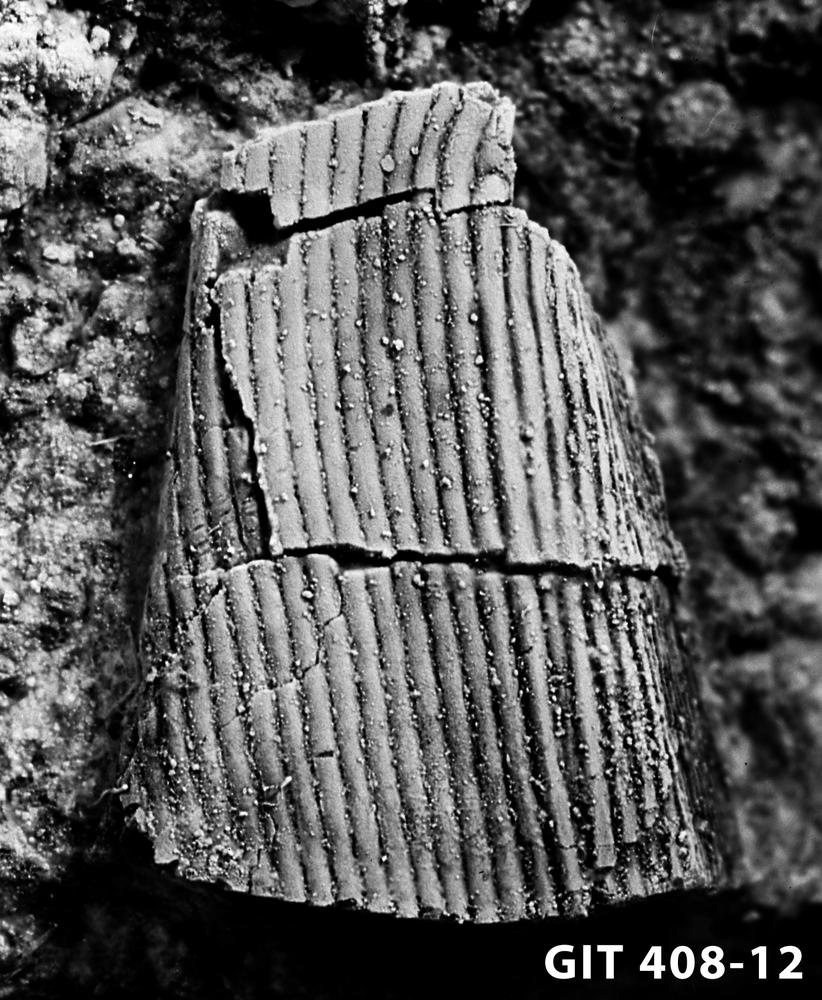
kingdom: Animalia
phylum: Chordata
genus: Archegonaspis
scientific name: Archegonaspis
